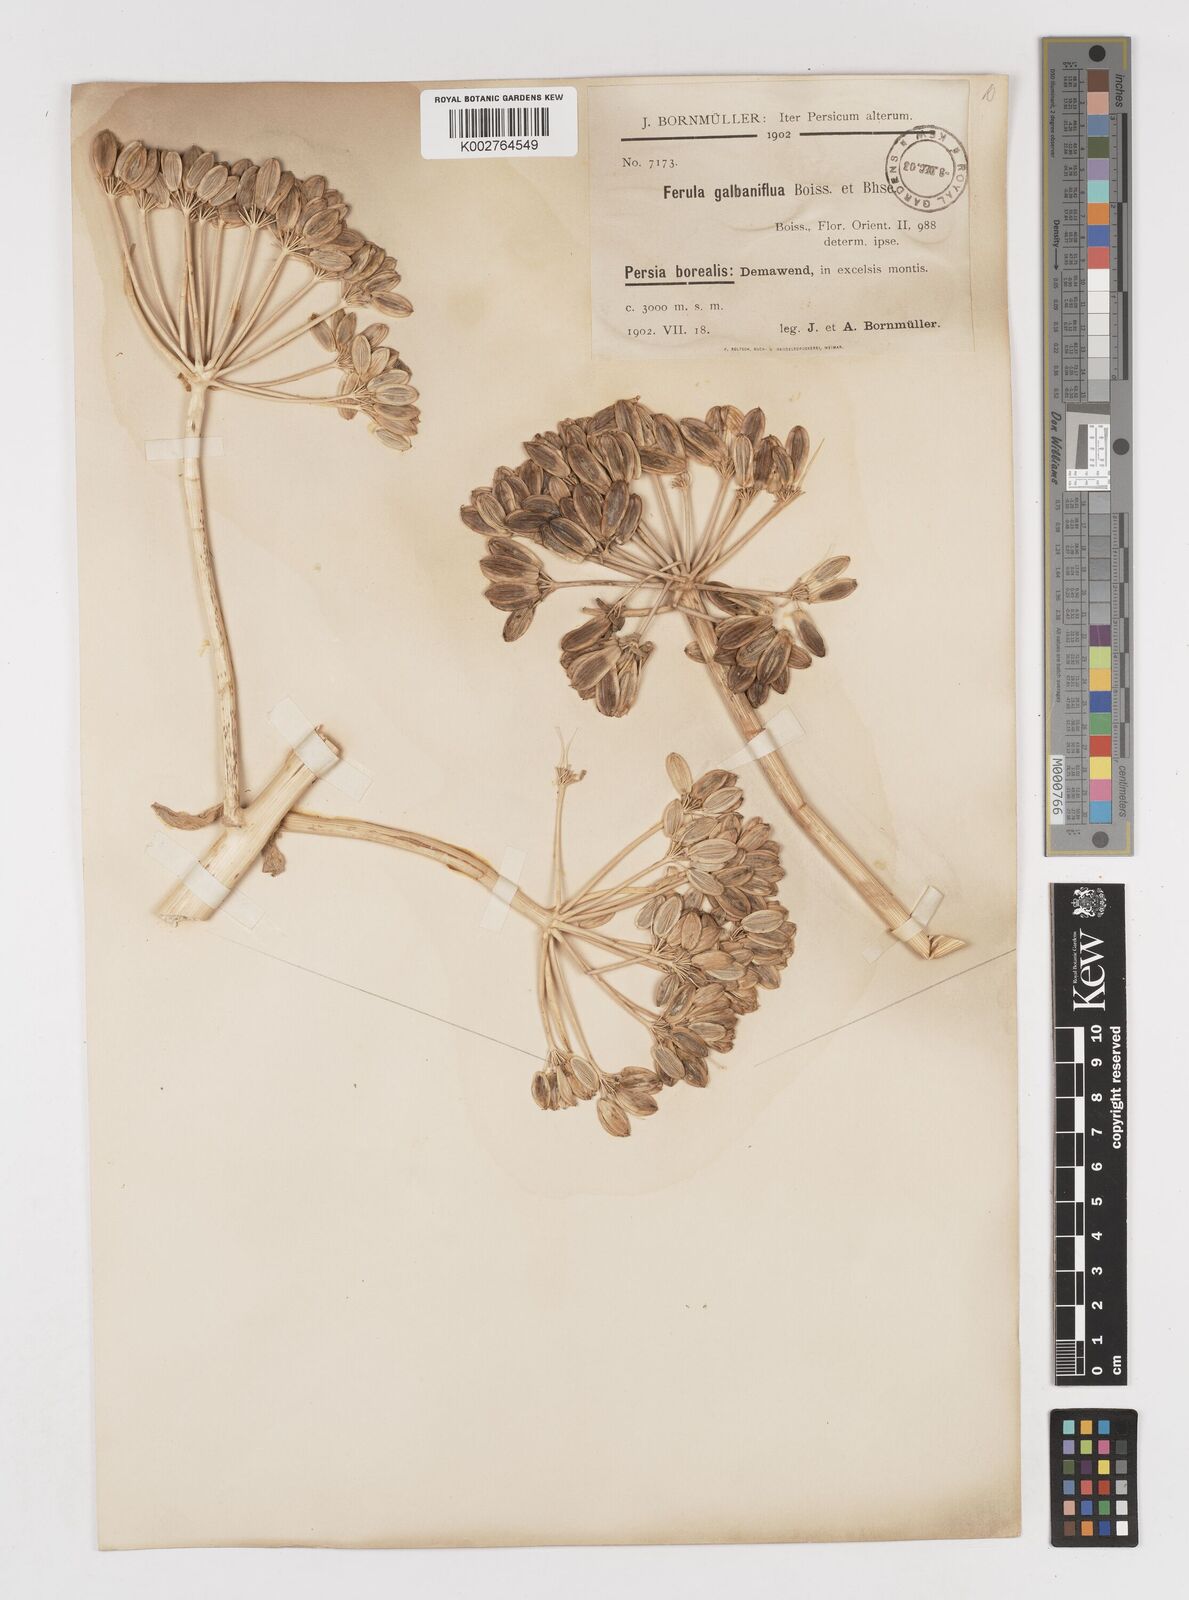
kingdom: Plantae
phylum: Tracheophyta
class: Magnoliopsida
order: Apiales
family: Apiaceae
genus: Ferula
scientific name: Ferula gummosa
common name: Galbanum
